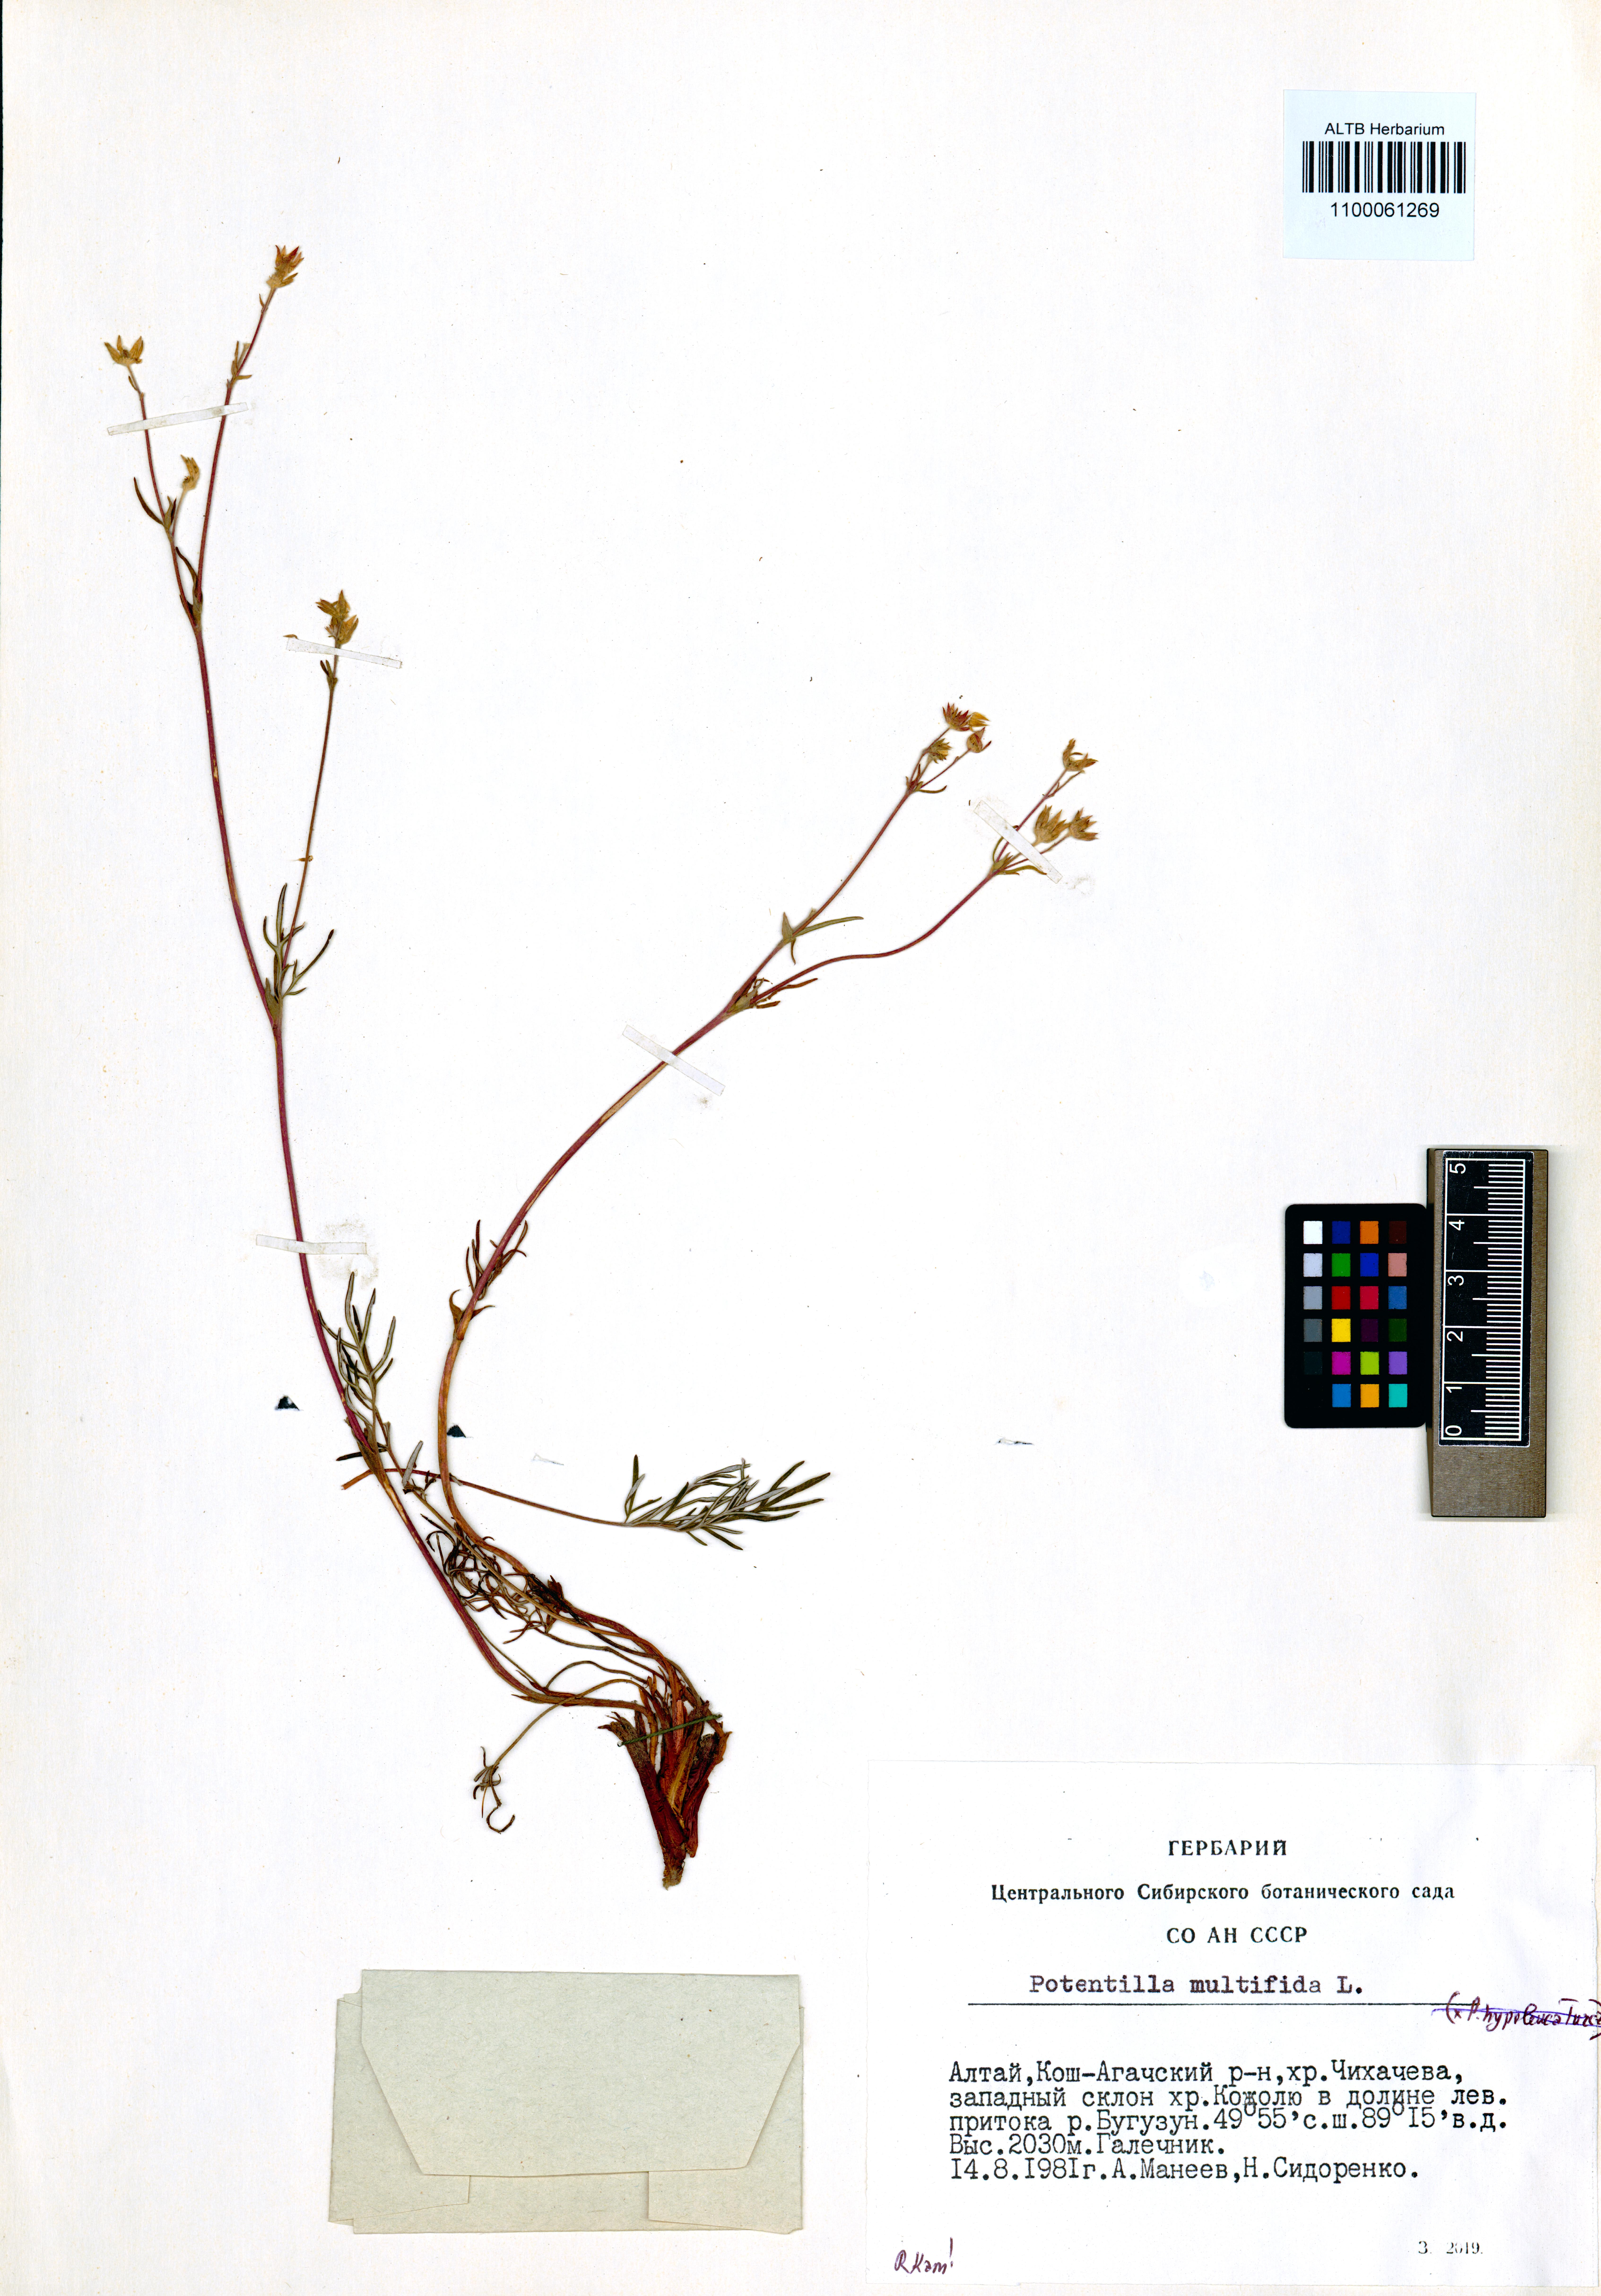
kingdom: Plantae
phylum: Tracheophyta
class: Magnoliopsida
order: Rosales
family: Rosaceae
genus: Potentilla
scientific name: Potentilla multifida
